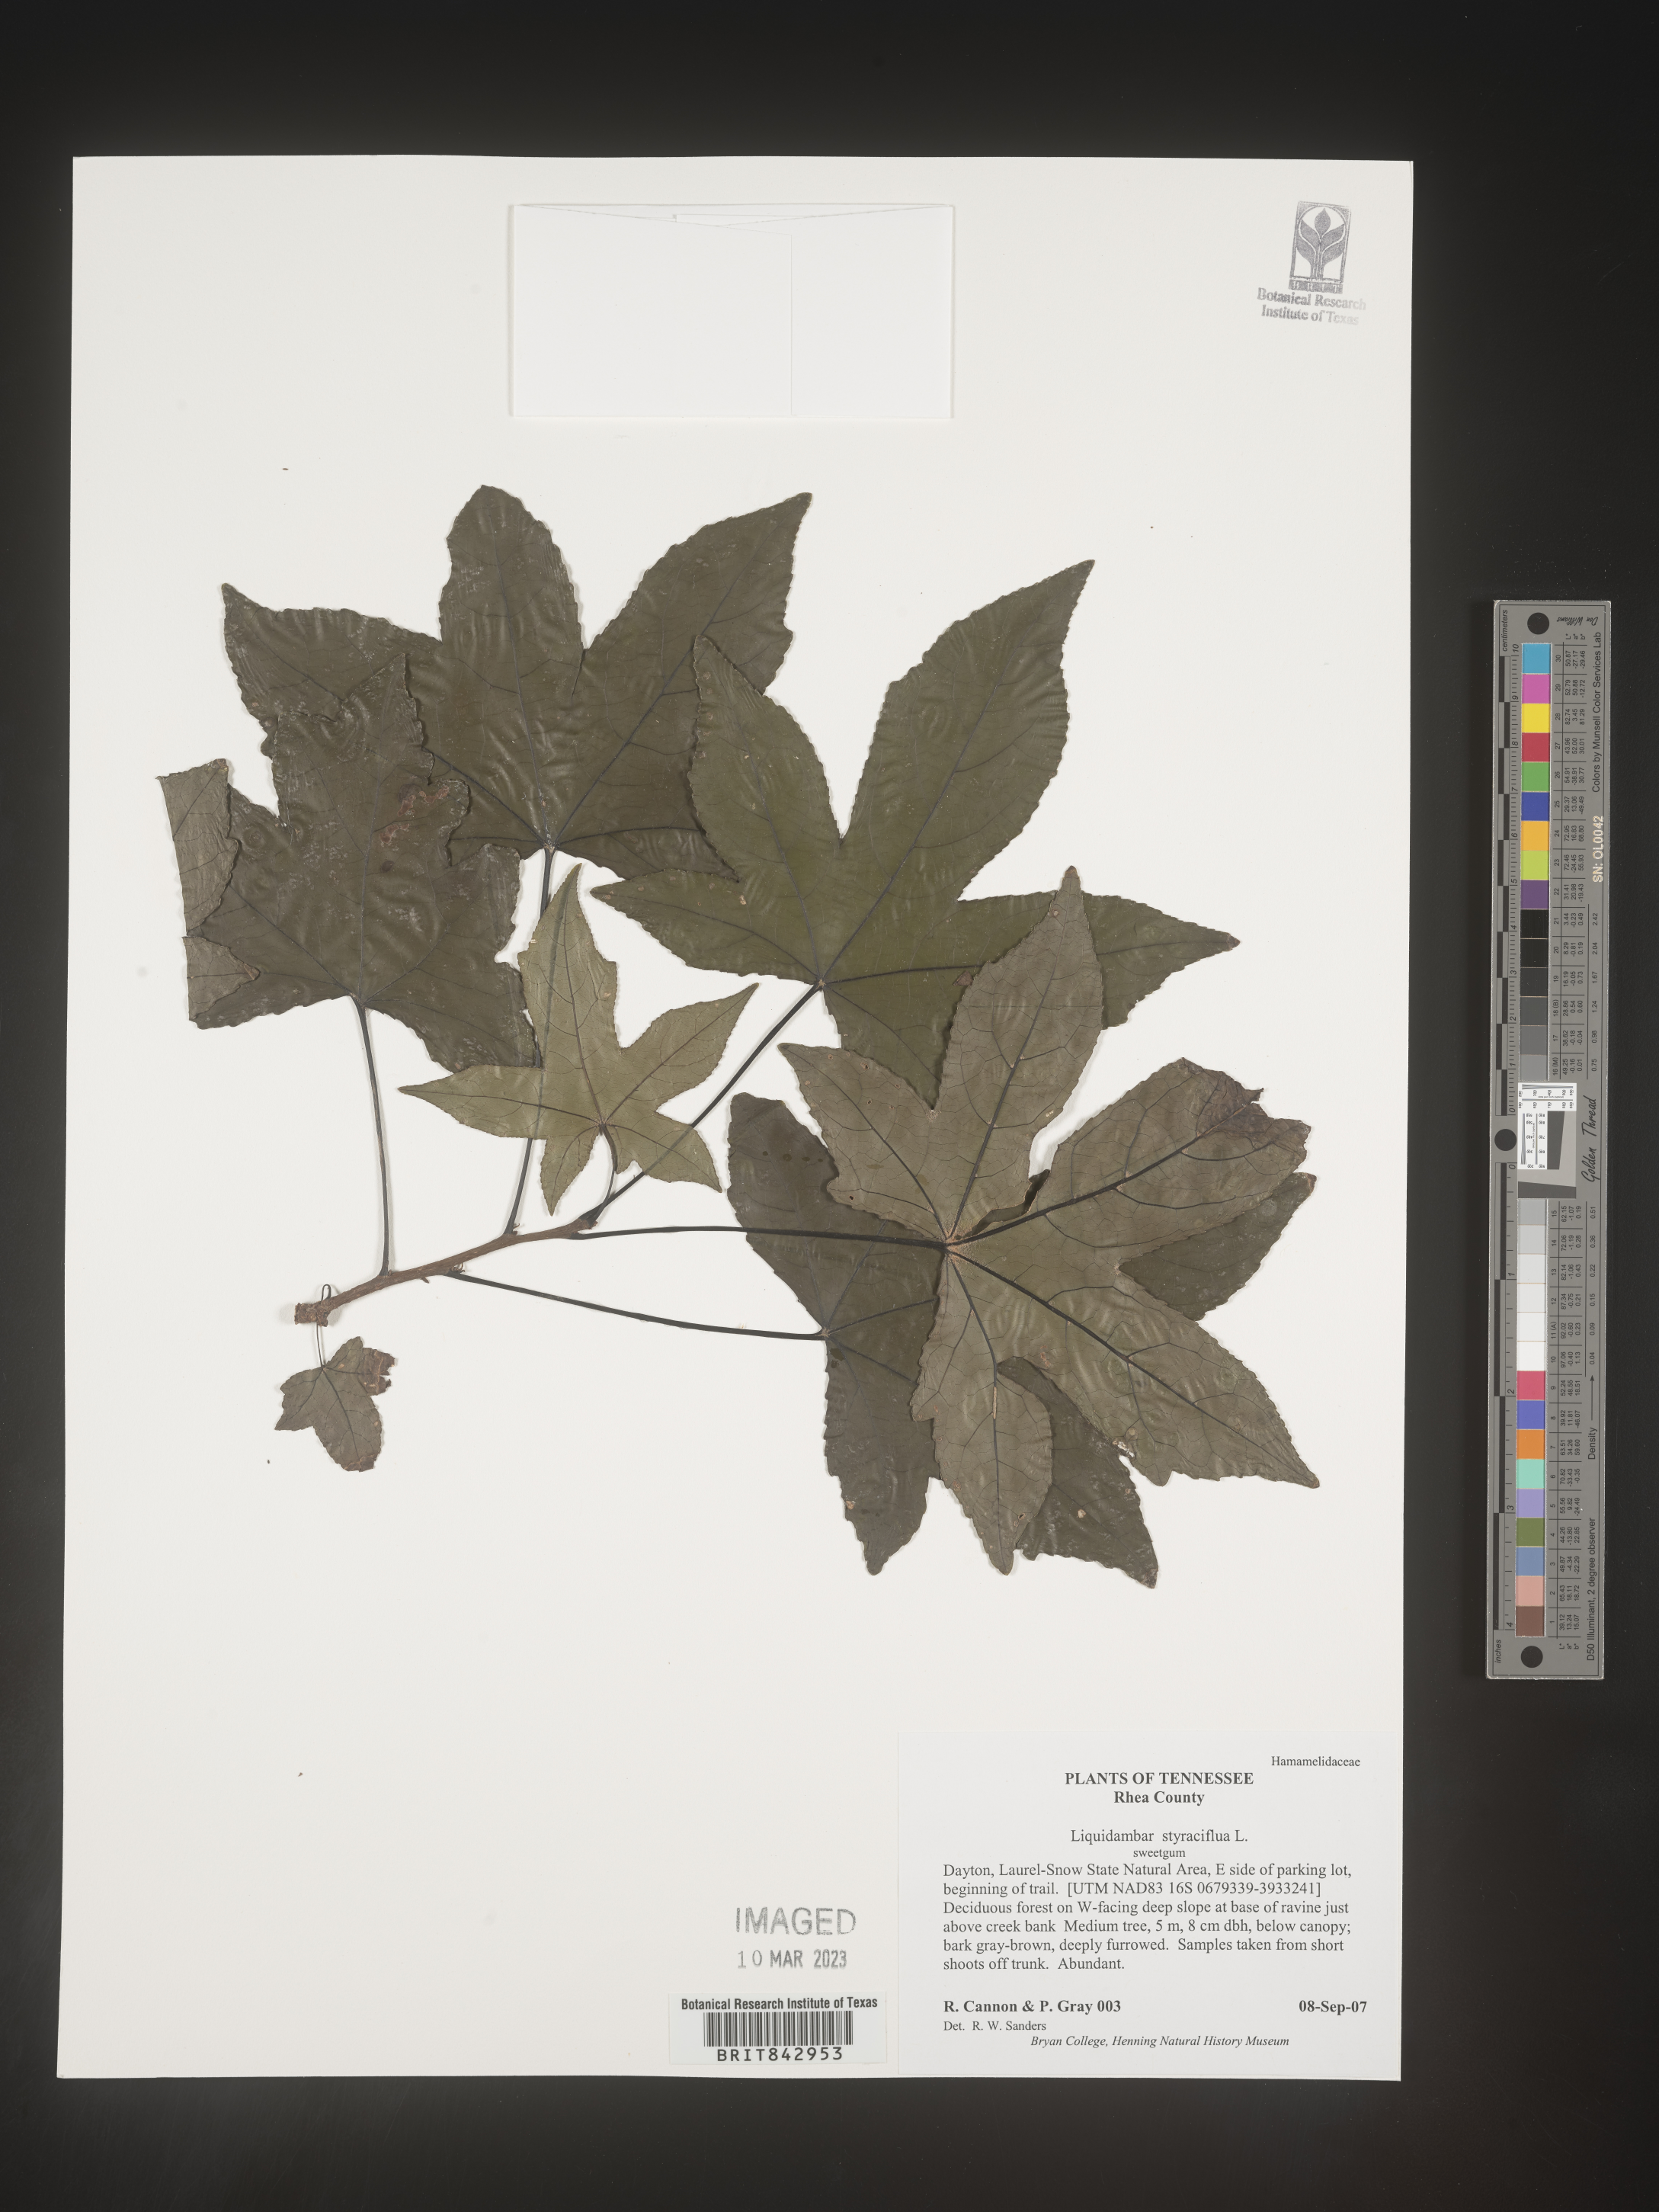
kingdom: Plantae
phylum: Tracheophyta
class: Magnoliopsida
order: Saxifragales
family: Altingiaceae
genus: Liquidambar
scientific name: Liquidambar styraciflua
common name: Sweet gum
